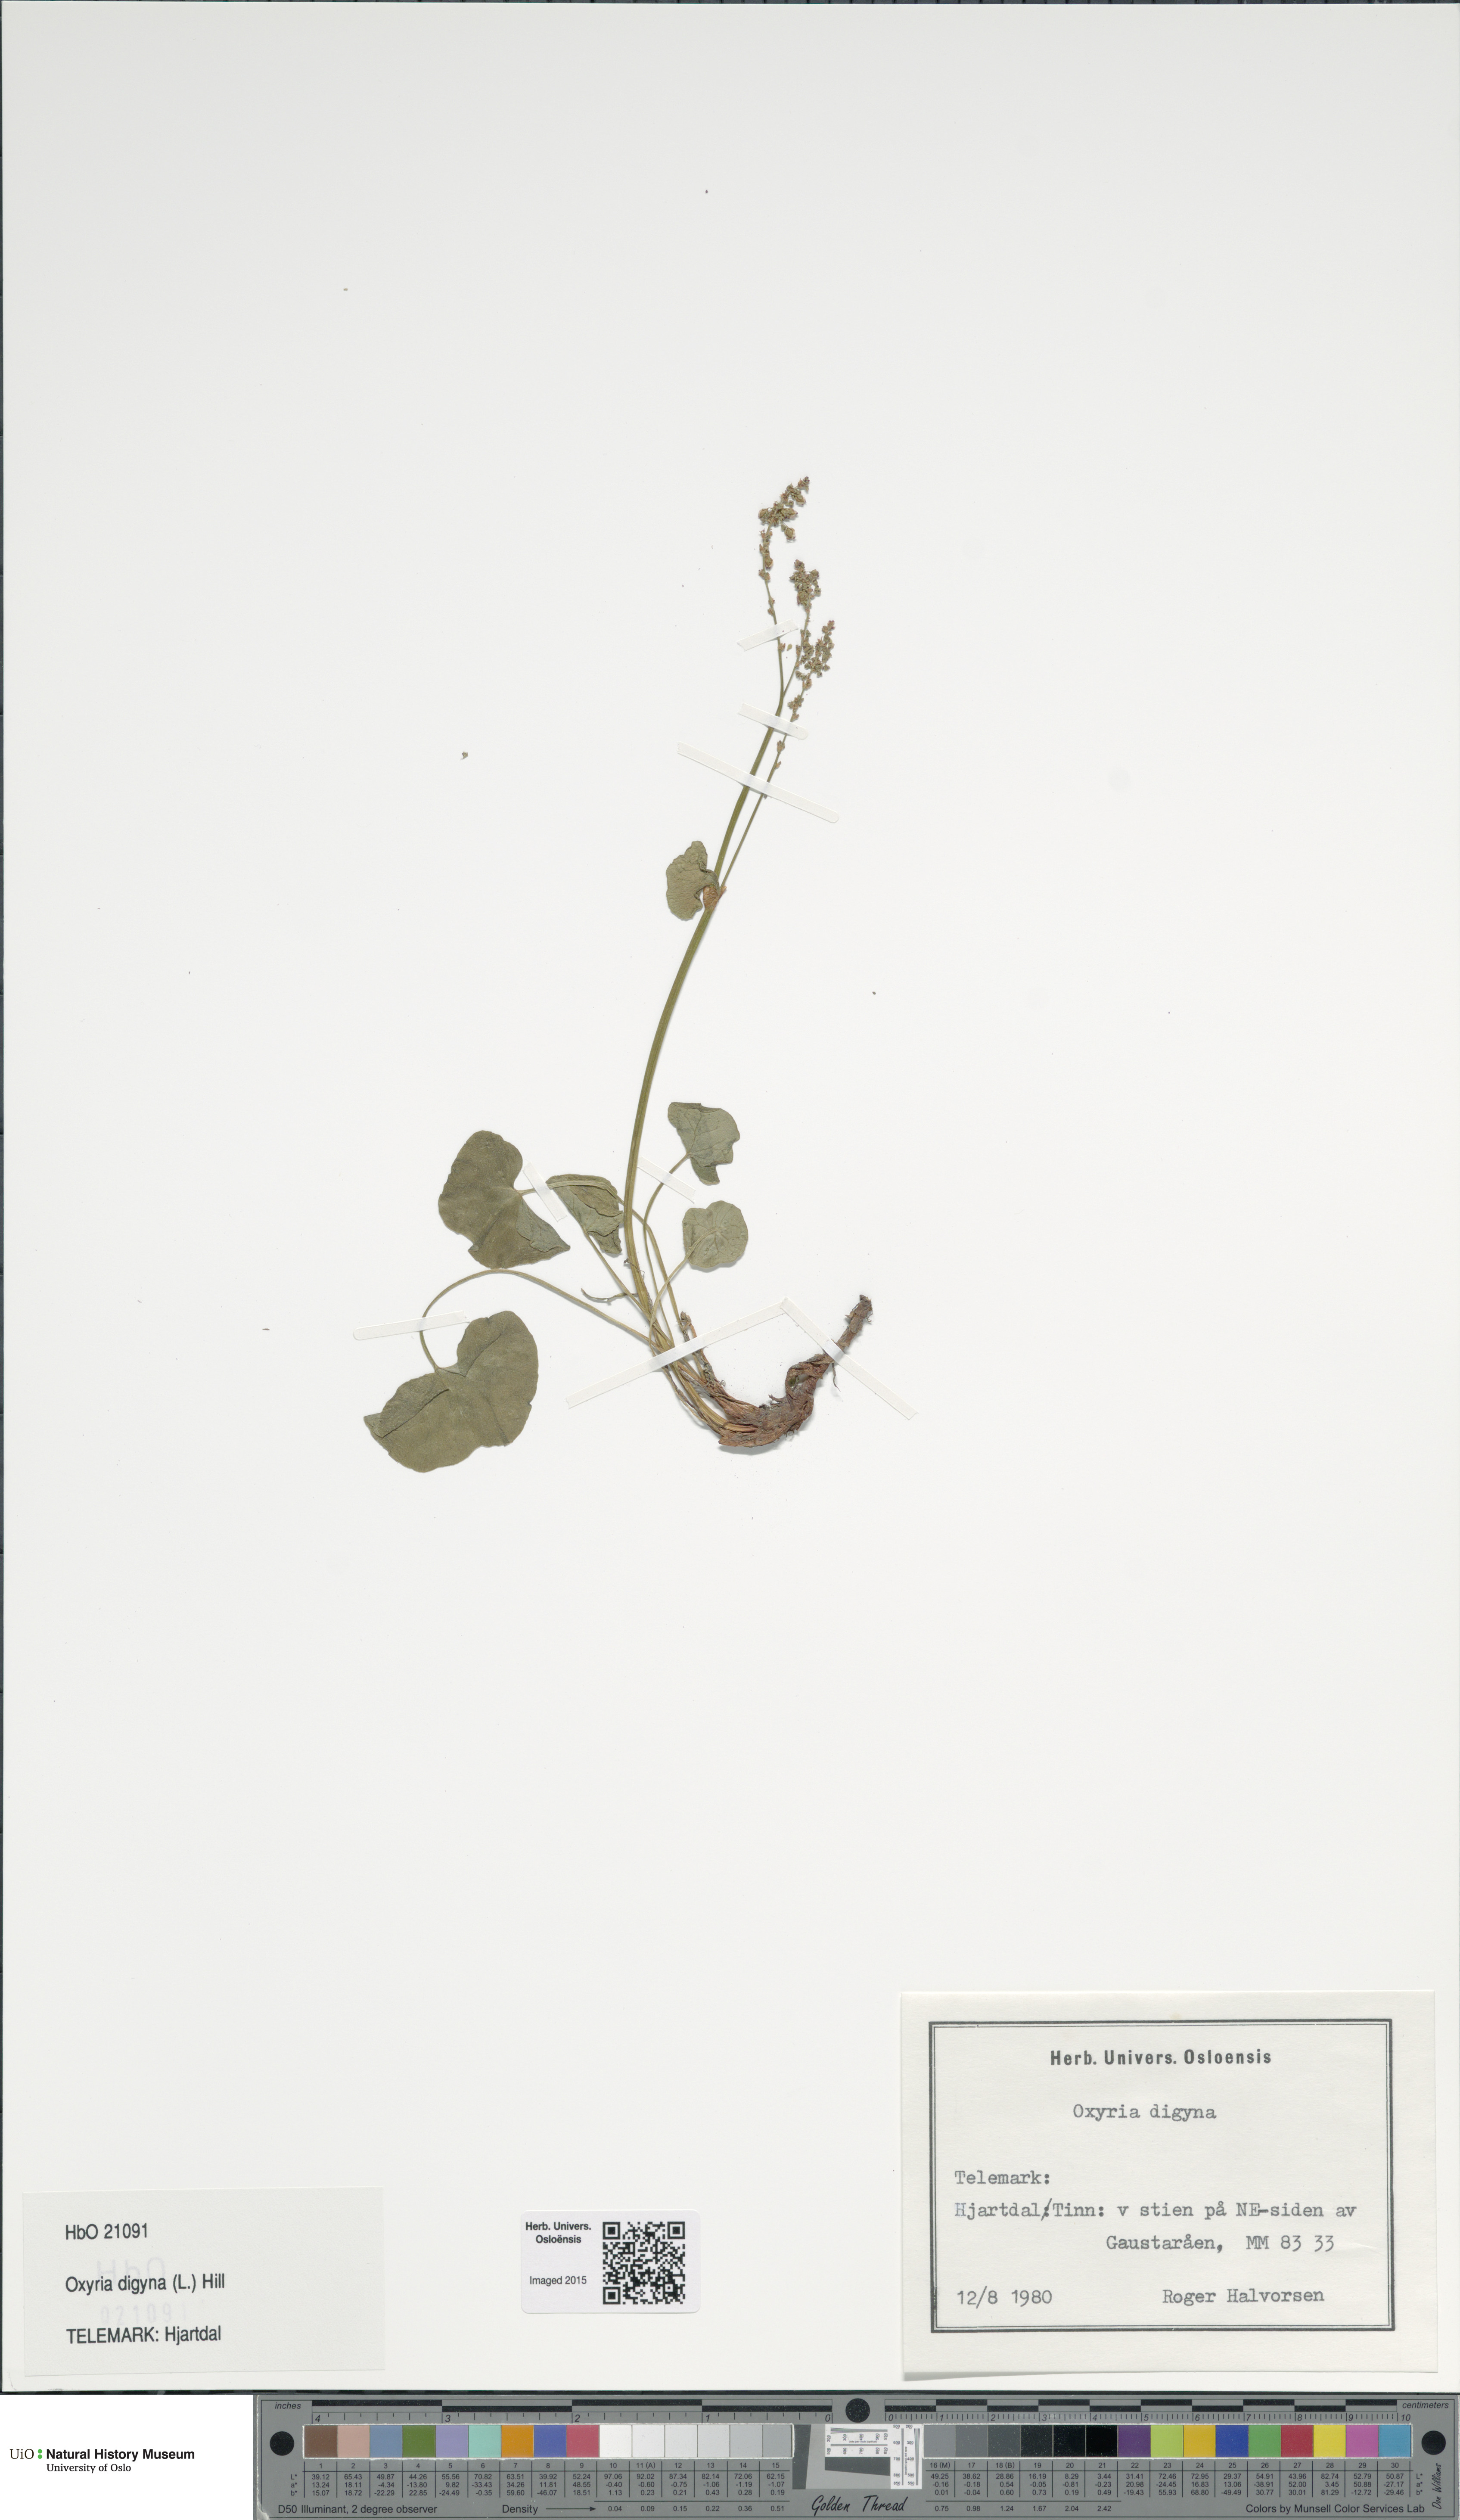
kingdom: Plantae
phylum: Tracheophyta
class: Magnoliopsida
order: Caryophyllales
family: Polygonaceae
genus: Oxyria
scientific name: Oxyria digyna
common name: Alpine mountain-sorrel
